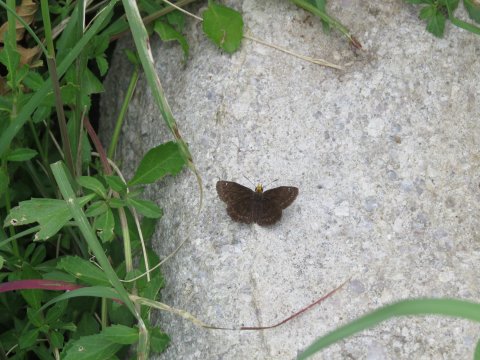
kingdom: Animalia
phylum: Arthropoda
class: Insecta
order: Lepidoptera
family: Hesperiidae
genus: Staphylus
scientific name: Staphylus ceos
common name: Golden-headed Scallopwing
